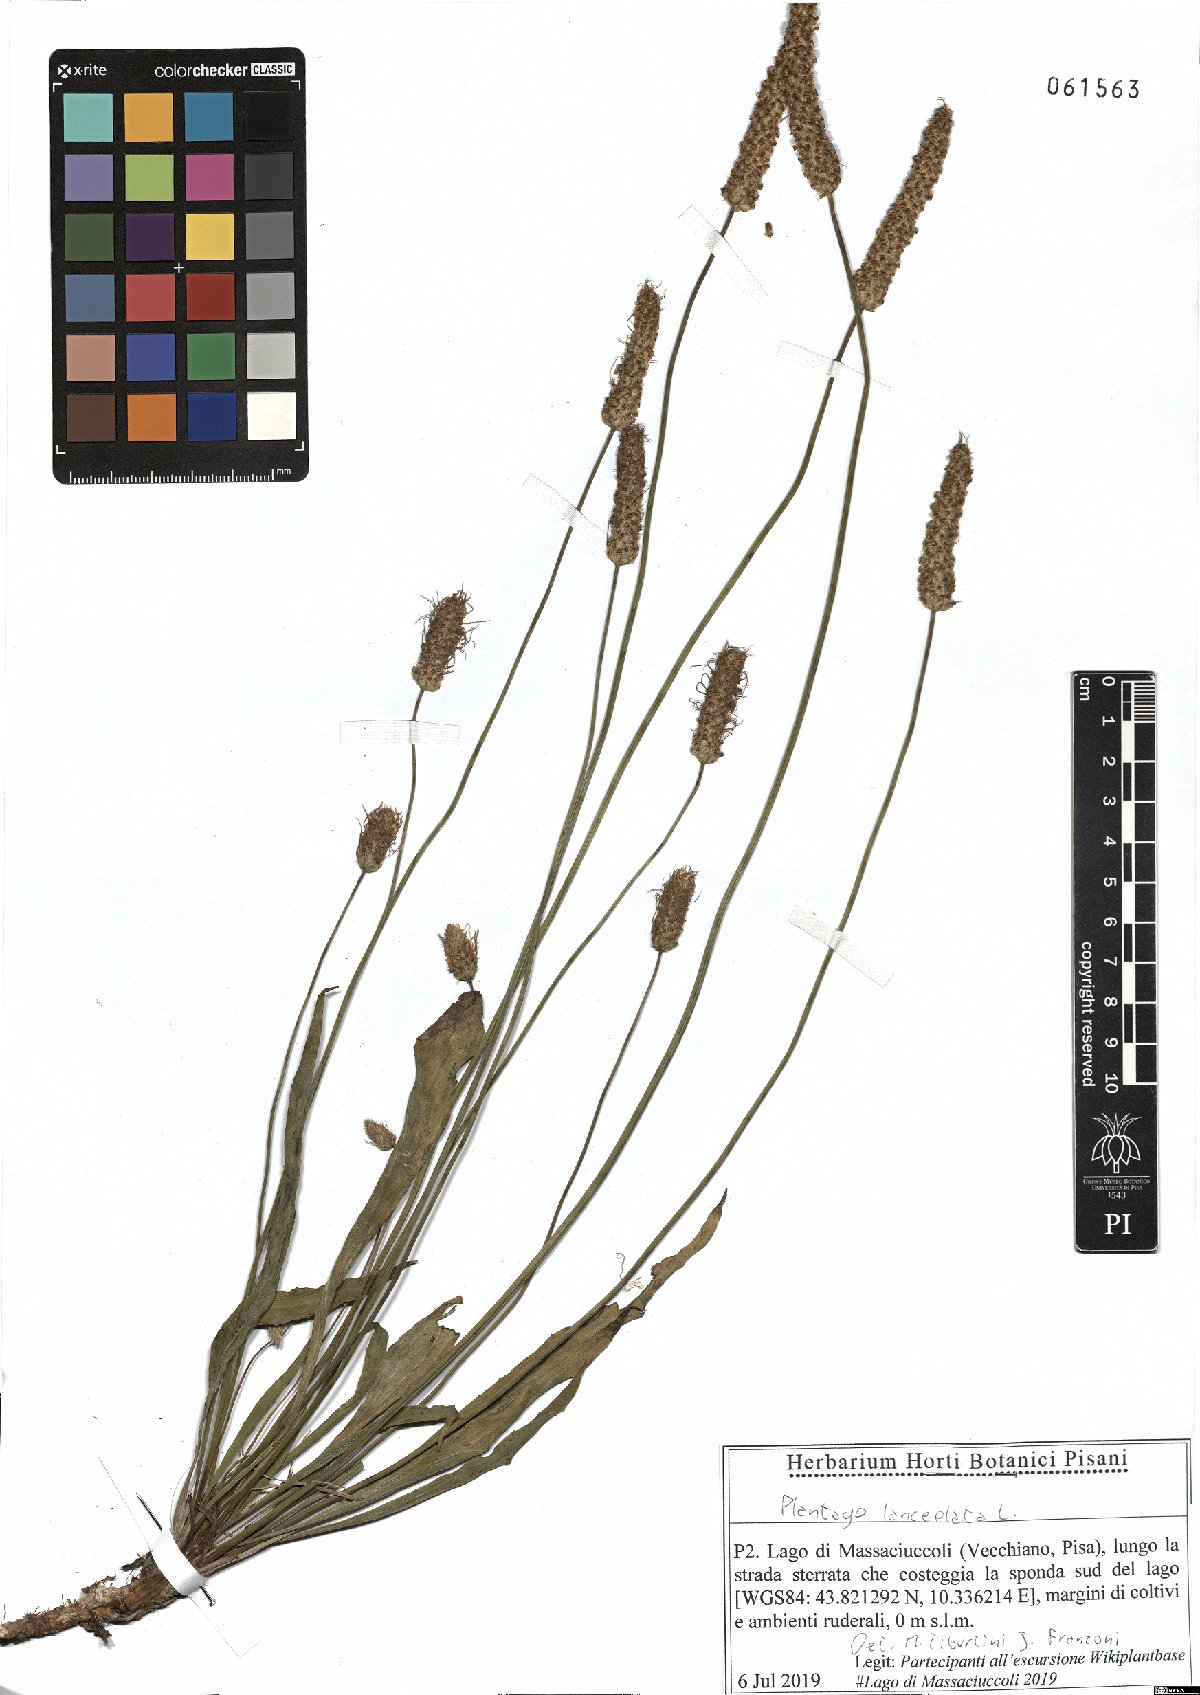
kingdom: Plantae
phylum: Tracheophyta
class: Magnoliopsida
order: Lamiales
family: Plantaginaceae
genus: Plantago
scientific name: Plantago lanceolata
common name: Ribwort plantain
